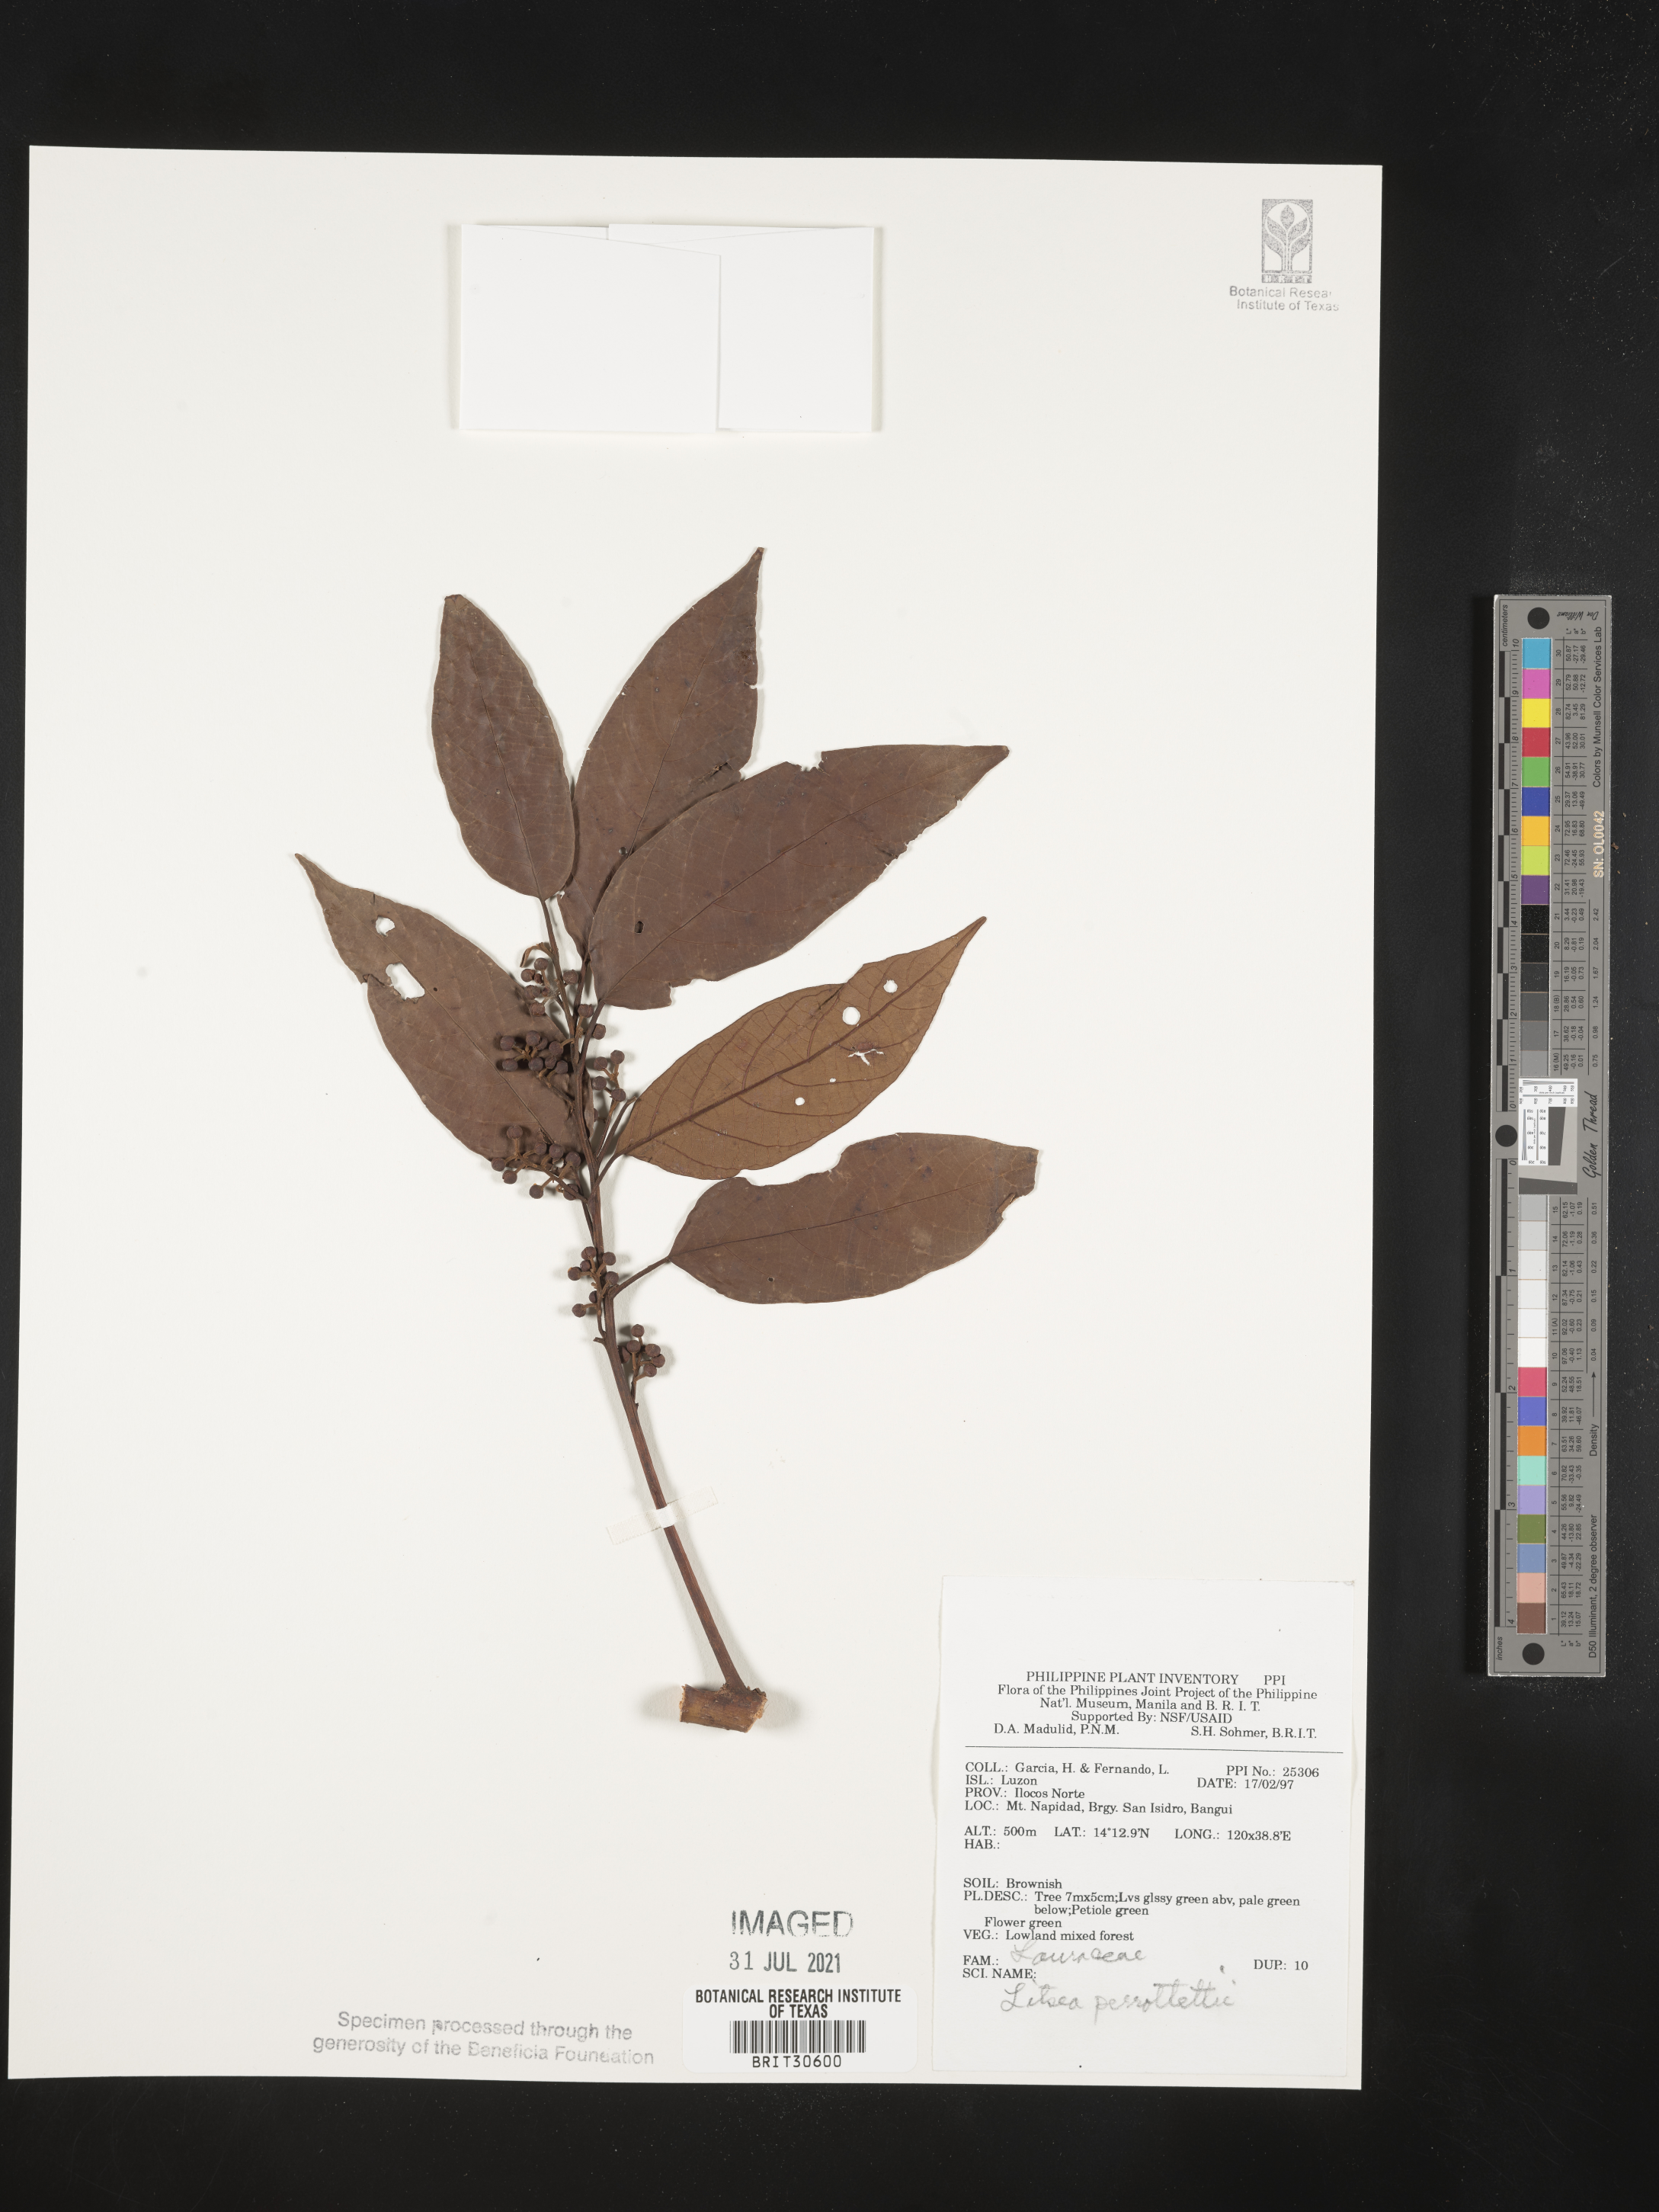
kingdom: Plantae
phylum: Tracheophyta
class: Magnoliopsida
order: Laurales
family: Lauraceae
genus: Litsea
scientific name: Litsea cordata
